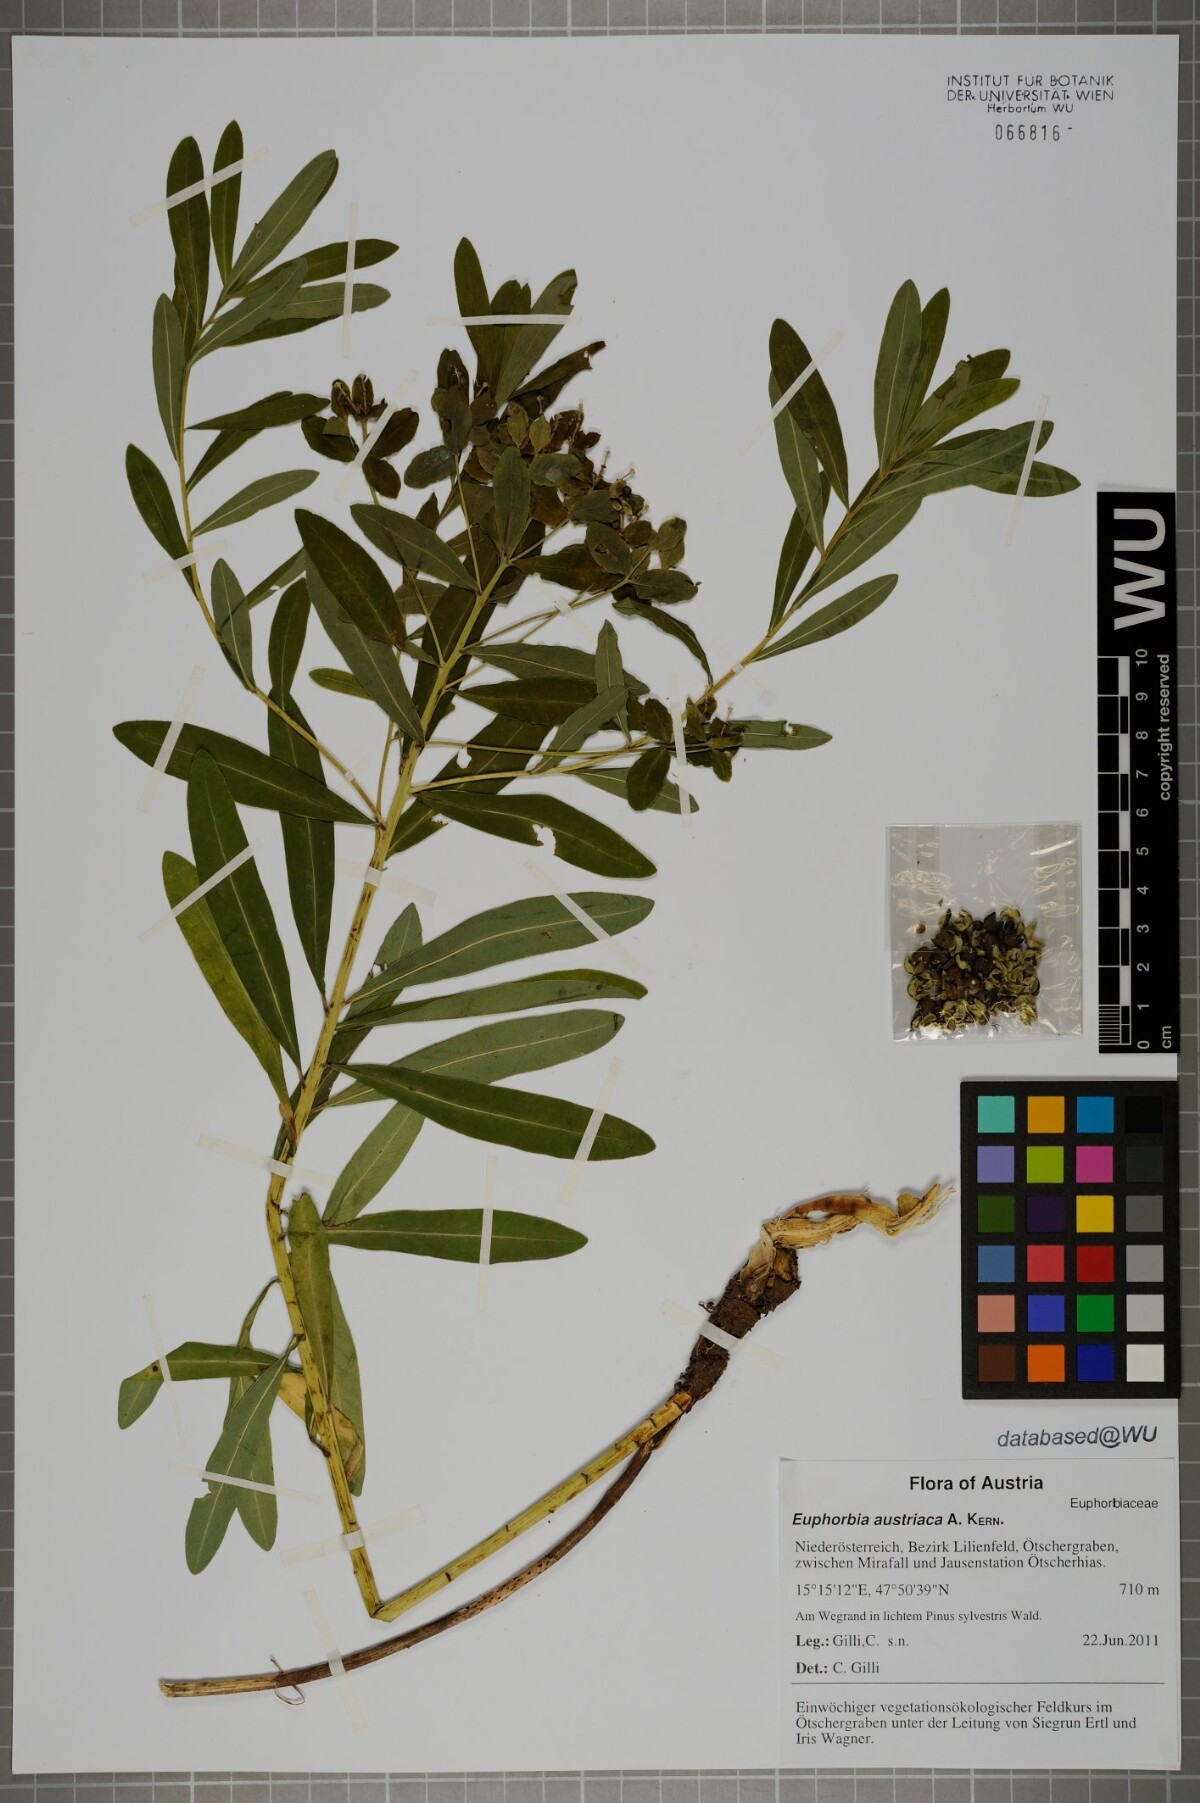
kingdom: Plantae
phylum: Tracheophyta
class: Magnoliopsida
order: Malpighiales
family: Euphorbiaceae
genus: Euphorbia
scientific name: Euphorbia austriaca
